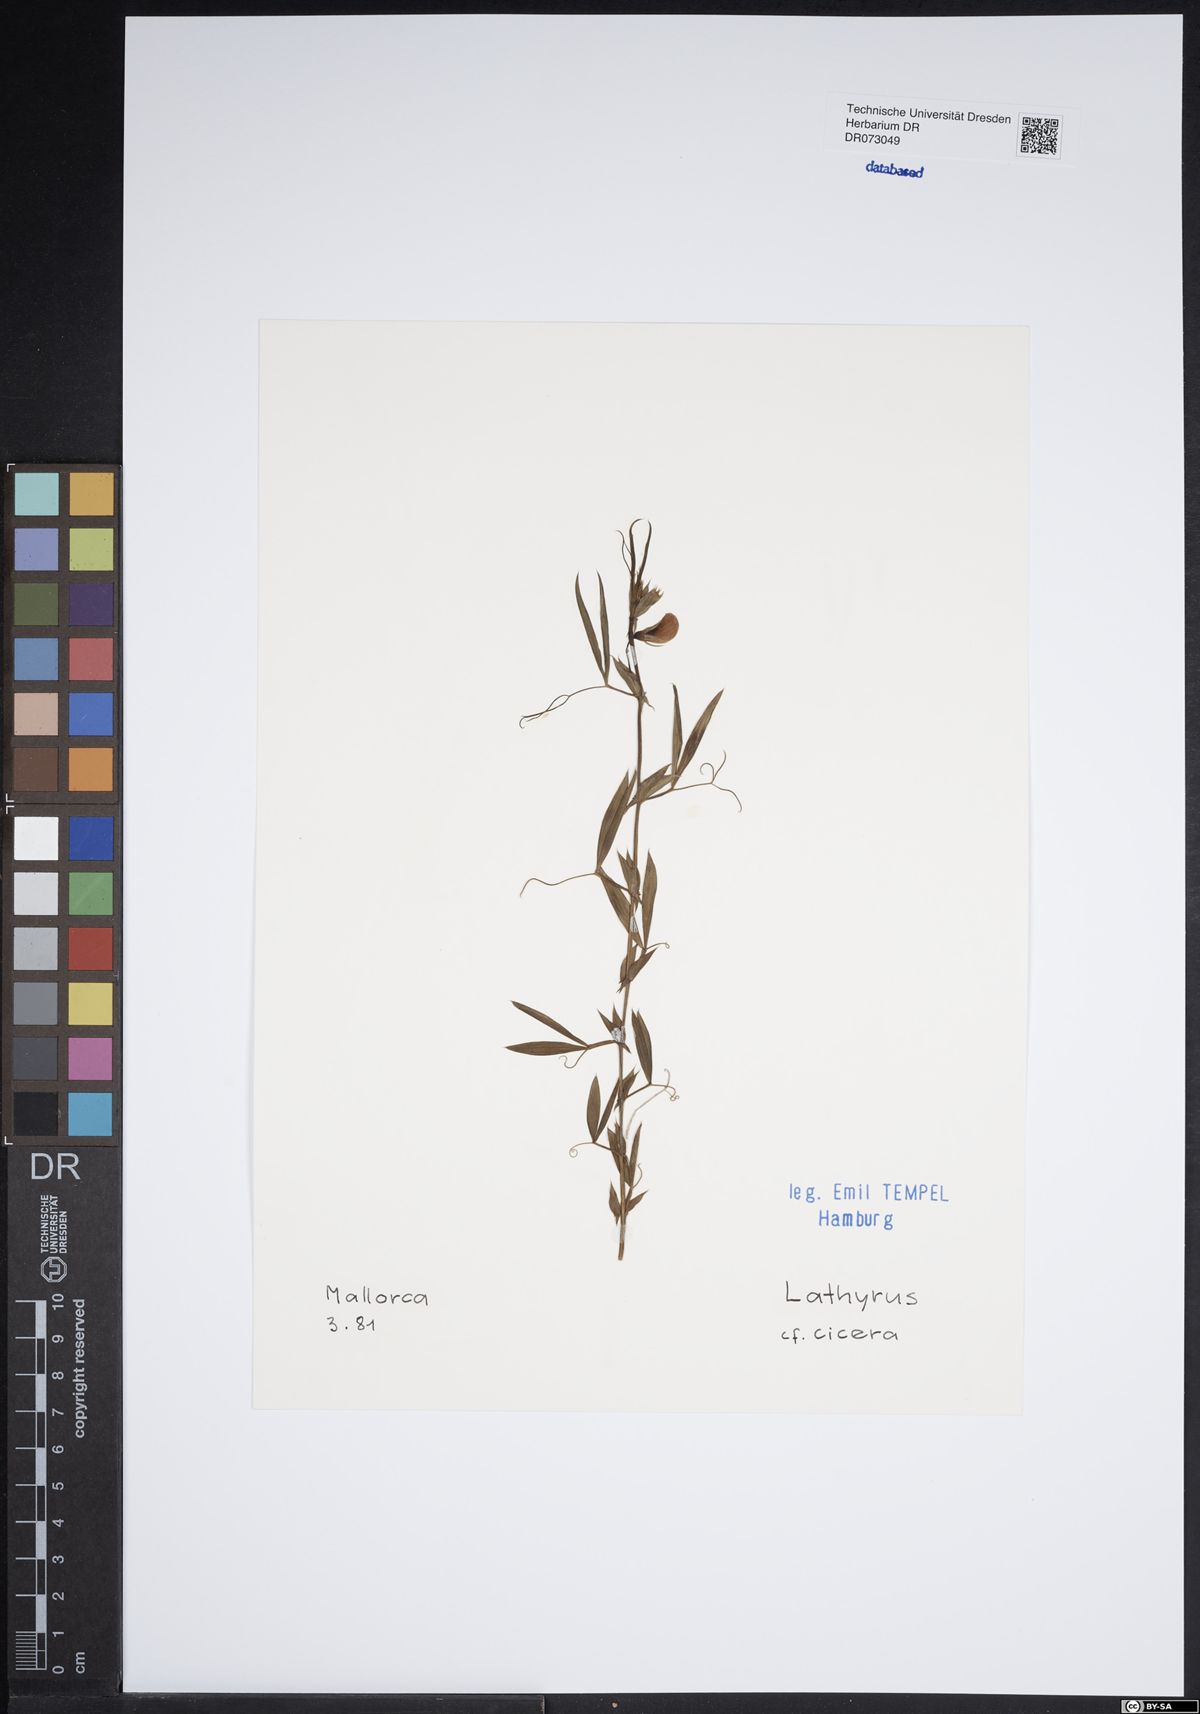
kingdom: Plantae
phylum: Tracheophyta
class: Magnoliopsida
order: Fabales
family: Fabaceae
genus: Lathyrus
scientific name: Lathyrus ochrus
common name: Winged vetchling
